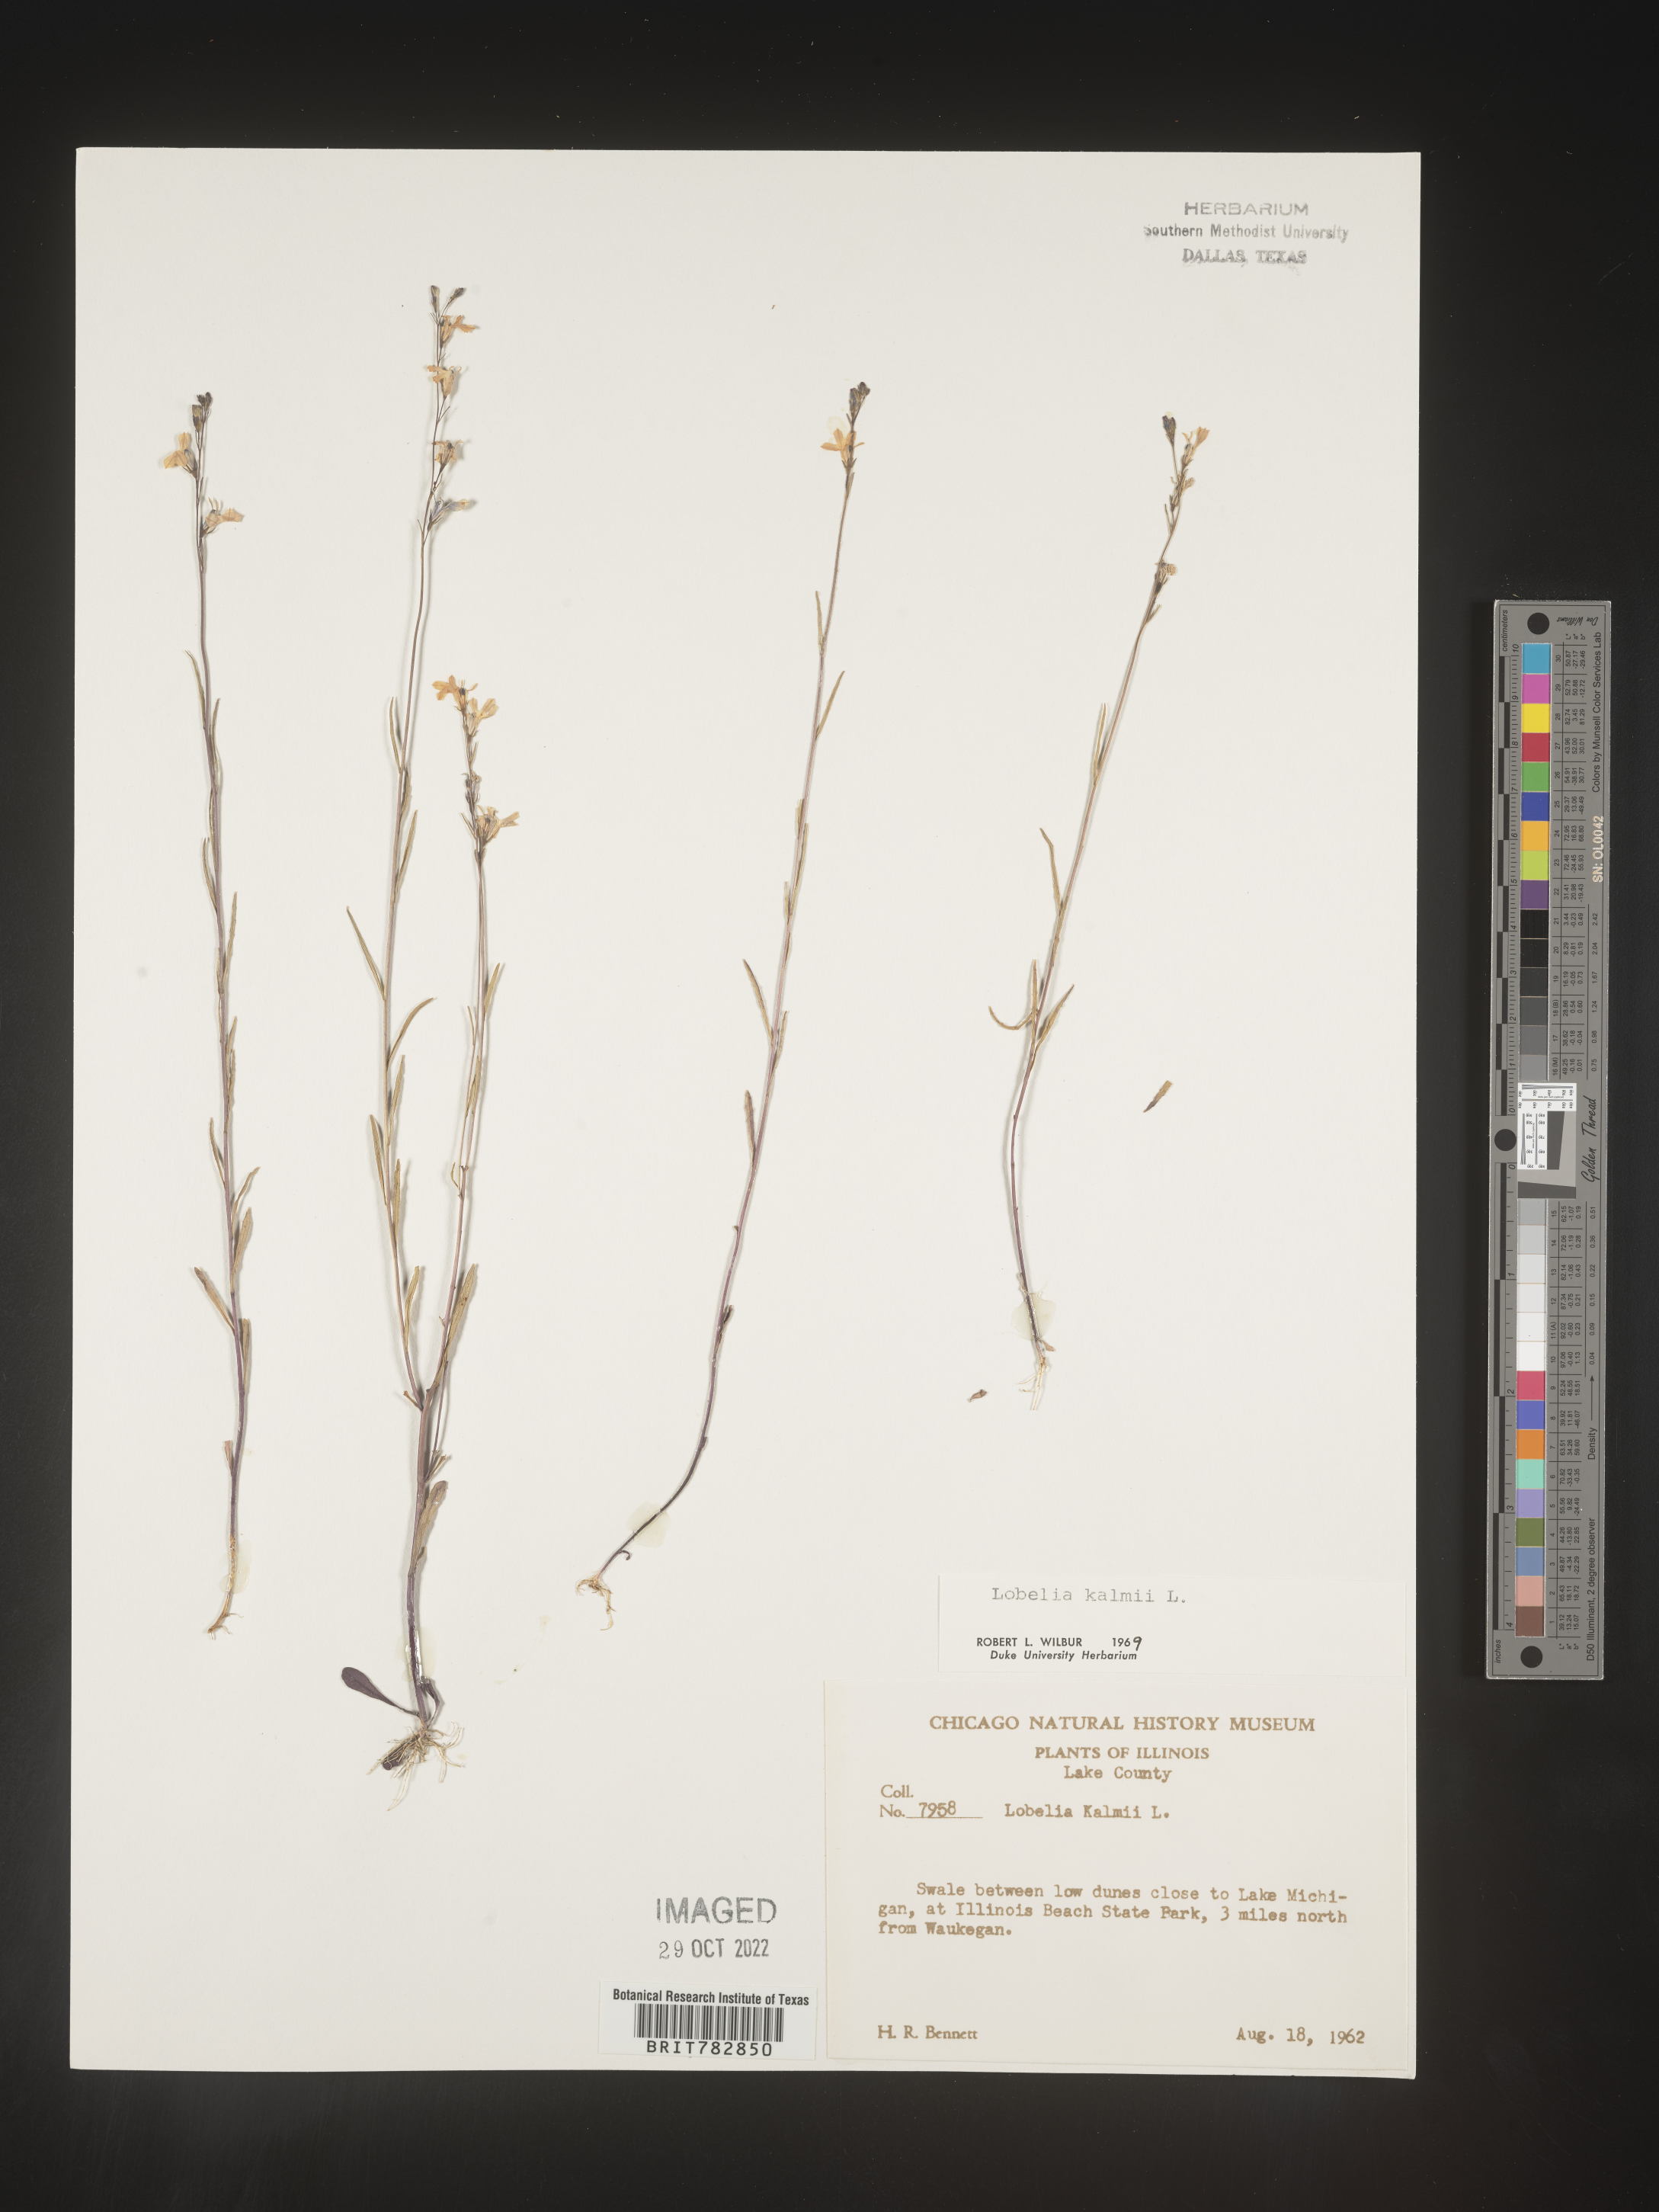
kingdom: Plantae
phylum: Tracheophyta
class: Magnoliopsida
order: Asterales
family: Campanulaceae
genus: Lobelia
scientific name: Lobelia
